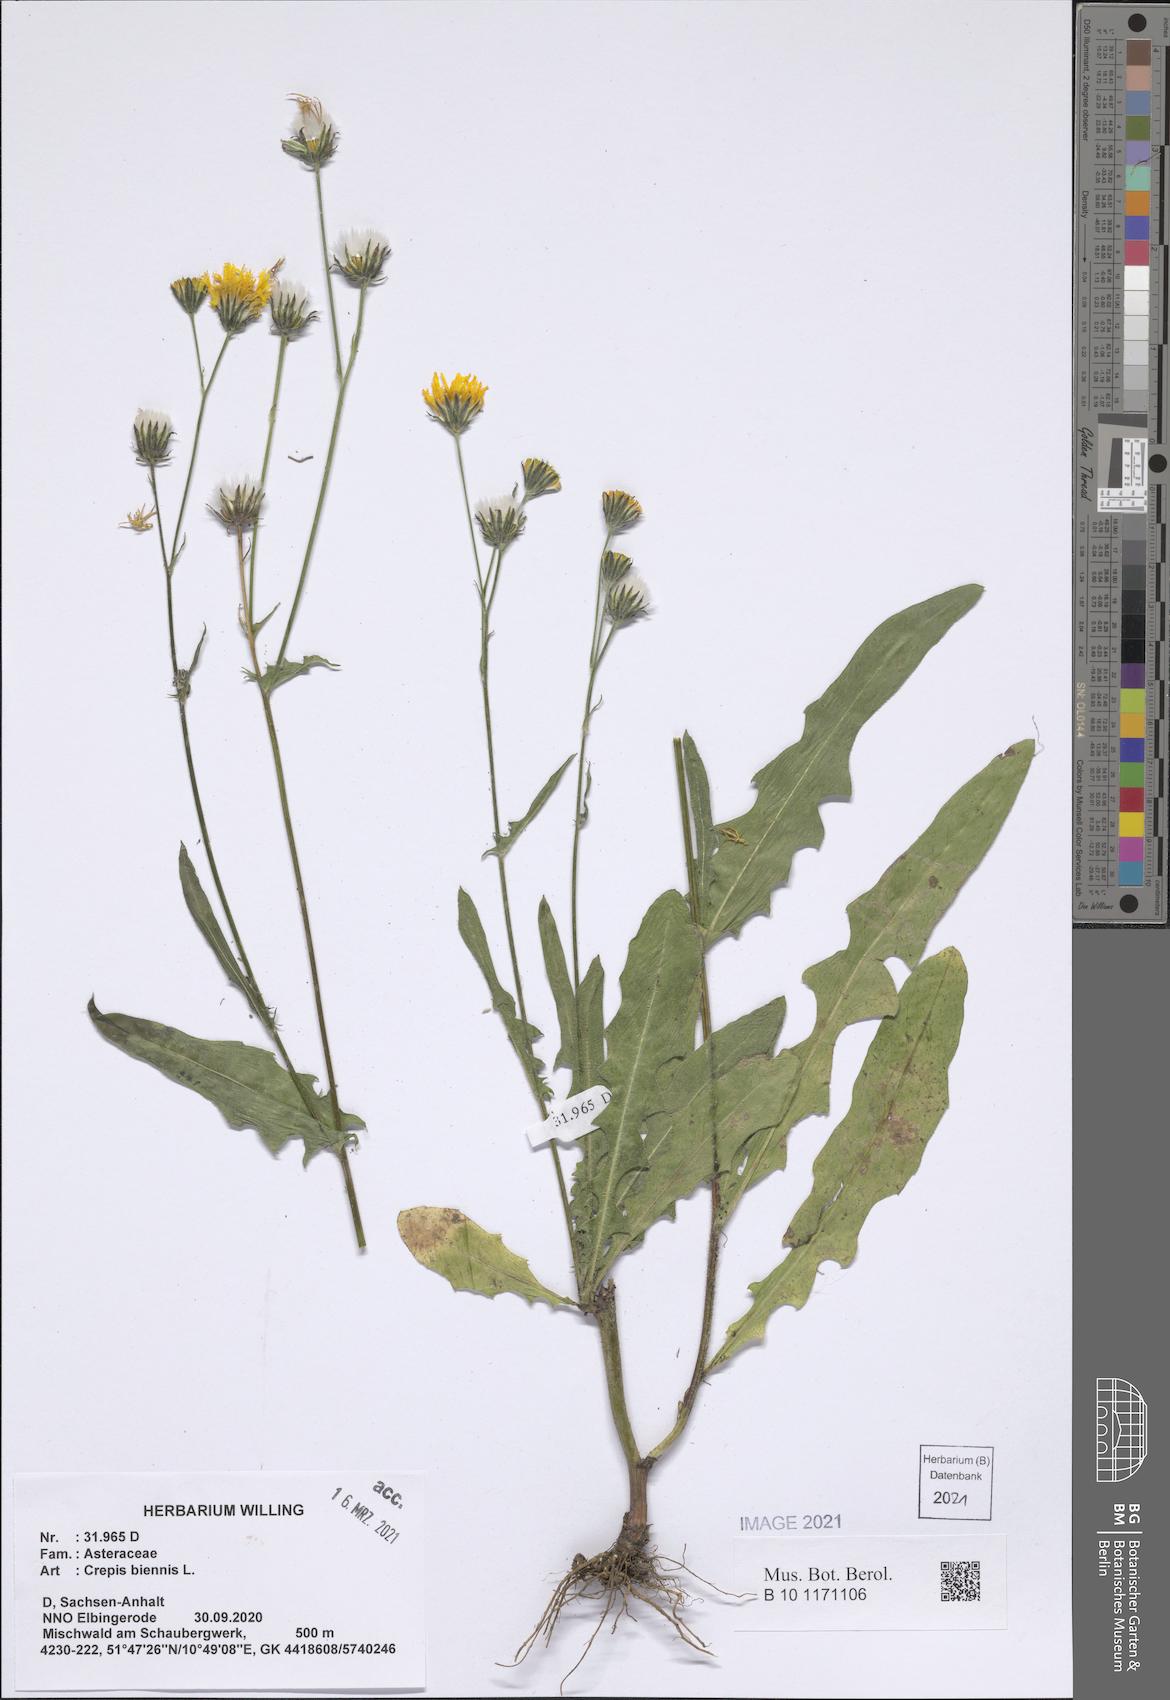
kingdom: Plantae
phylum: Tracheophyta
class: Magnoliopsida
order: Asterales
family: Asteraceae
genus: Crepis
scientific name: Crepis biennis
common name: Rough hawk's-beard
